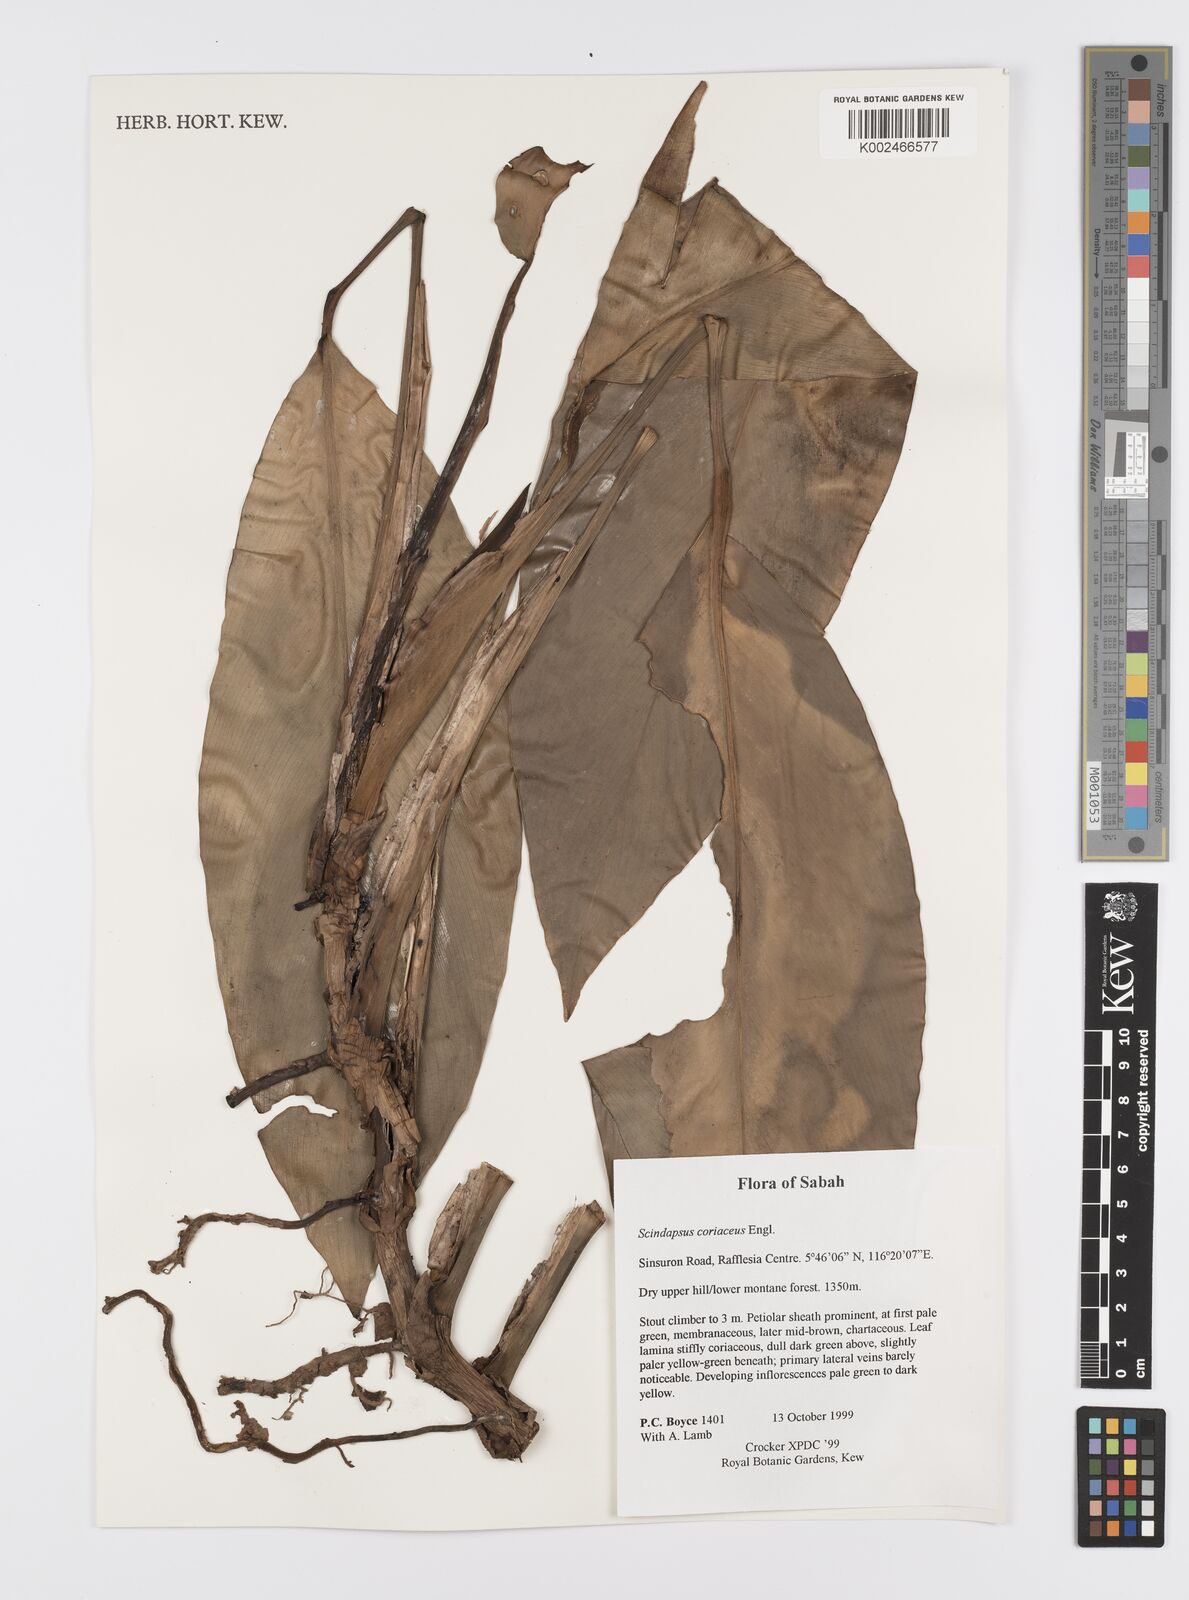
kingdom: Plantae
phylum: Tracheophyta
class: Liliopsida
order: Alismatales
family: Araceae
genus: Scindapsus
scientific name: Scindapsus coriaceus
